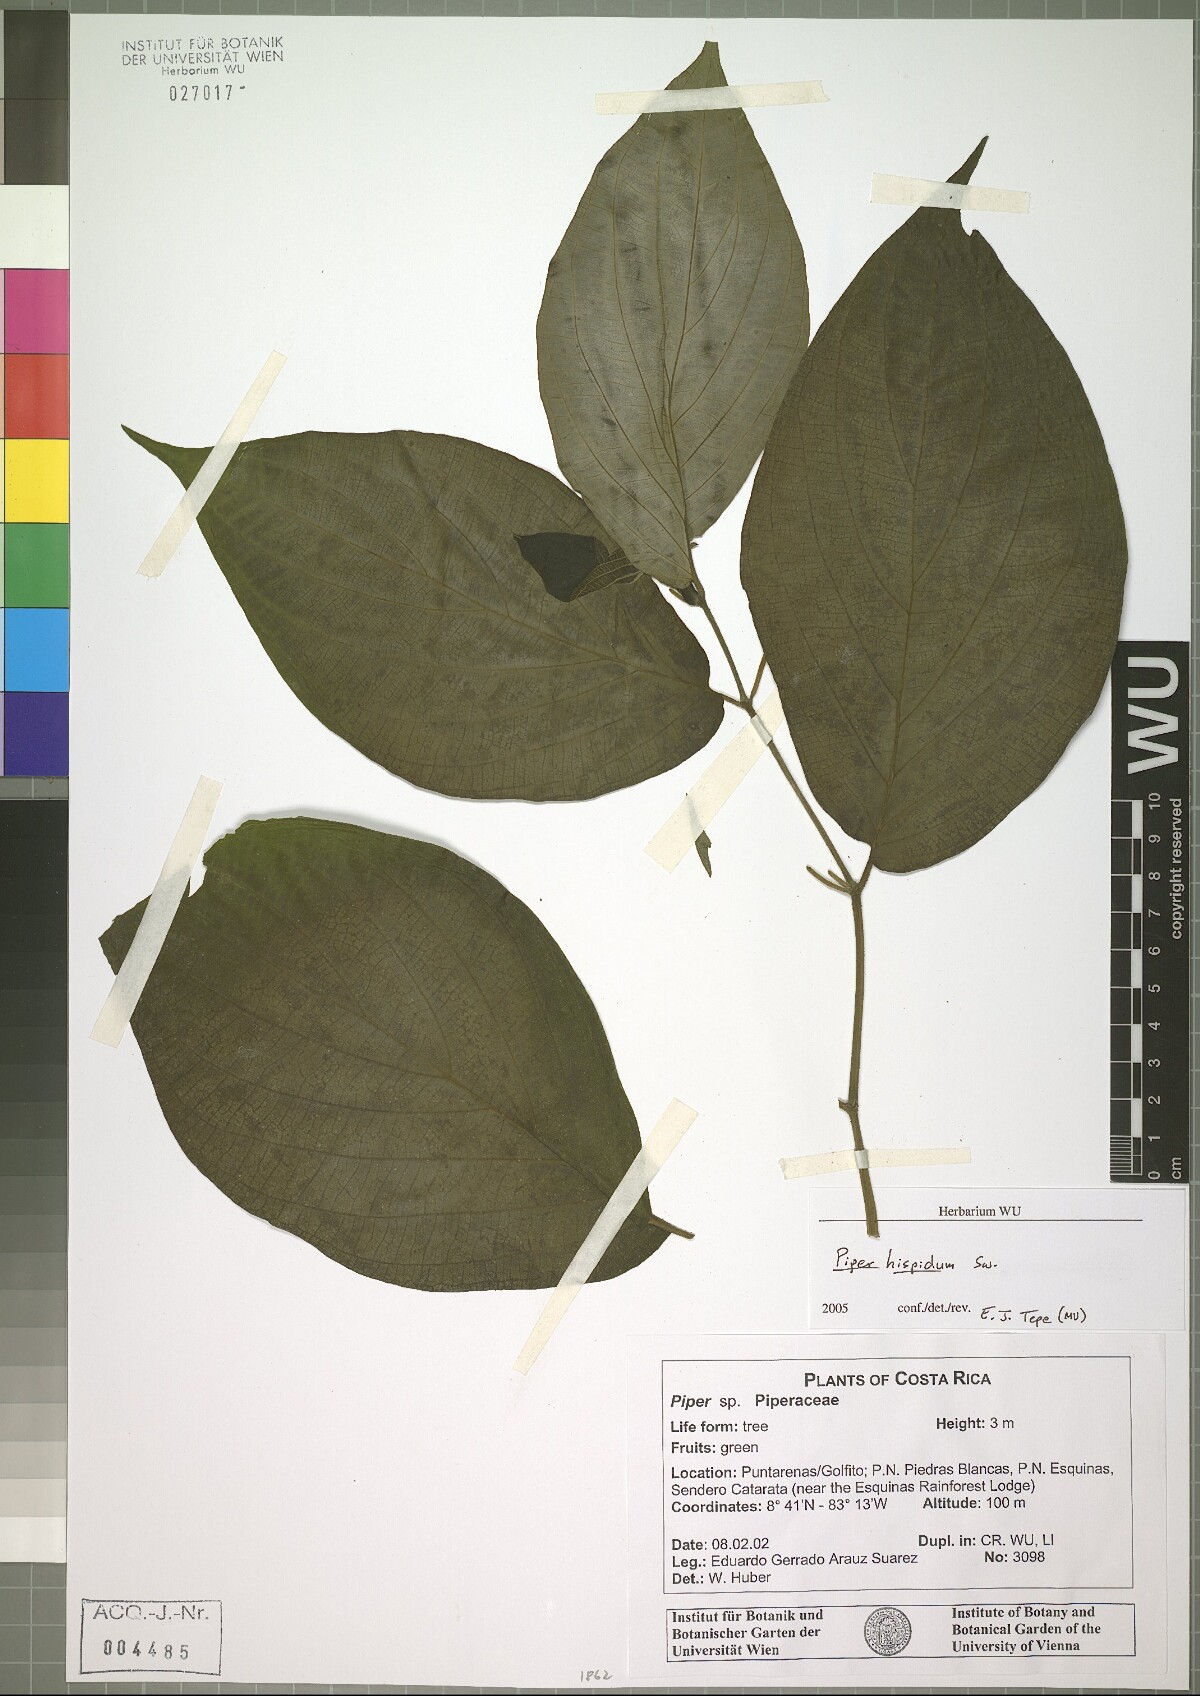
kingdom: Plantae
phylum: Tracheophyta
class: Magnoliopsida
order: Piperales
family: Piperaceae
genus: Piper
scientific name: Piper hispidum
